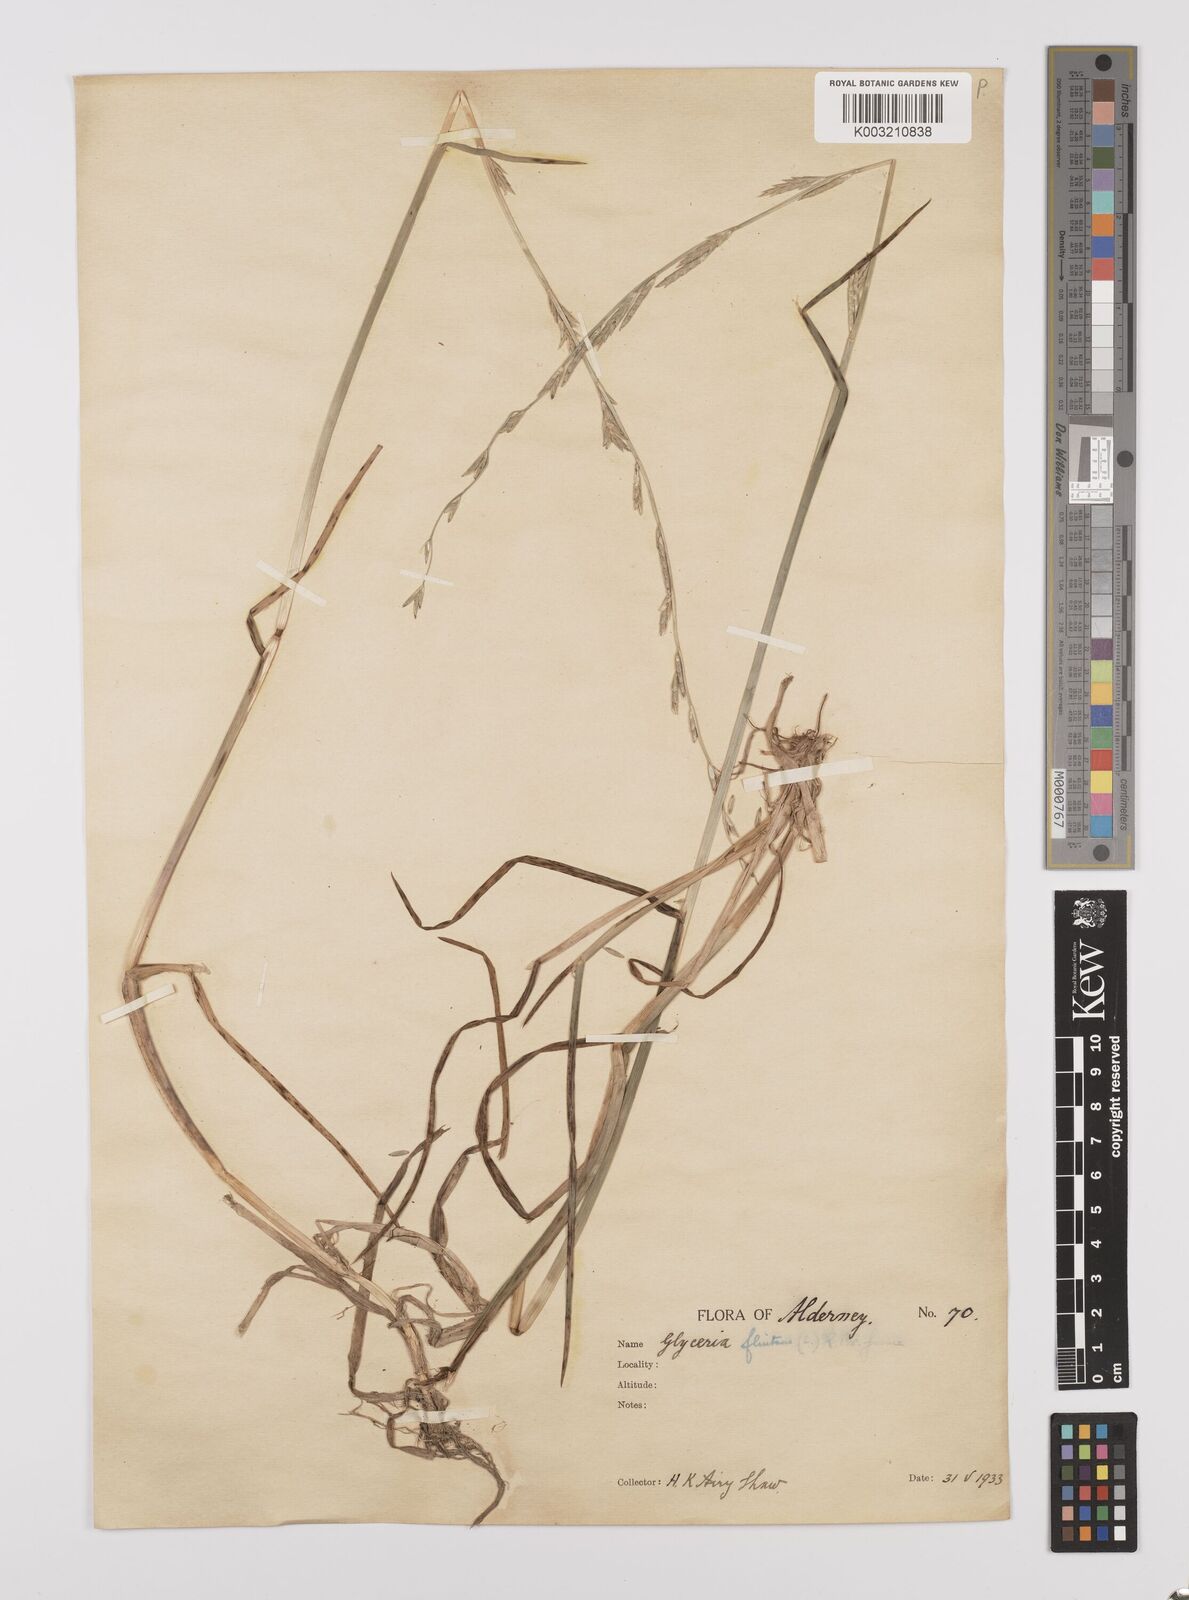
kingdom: Plantae
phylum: Tracheophyta
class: Liliopsida
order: Poales
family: Poaceae
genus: Glyceria
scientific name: Glyceria fluitans
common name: Floating sweet-grass
